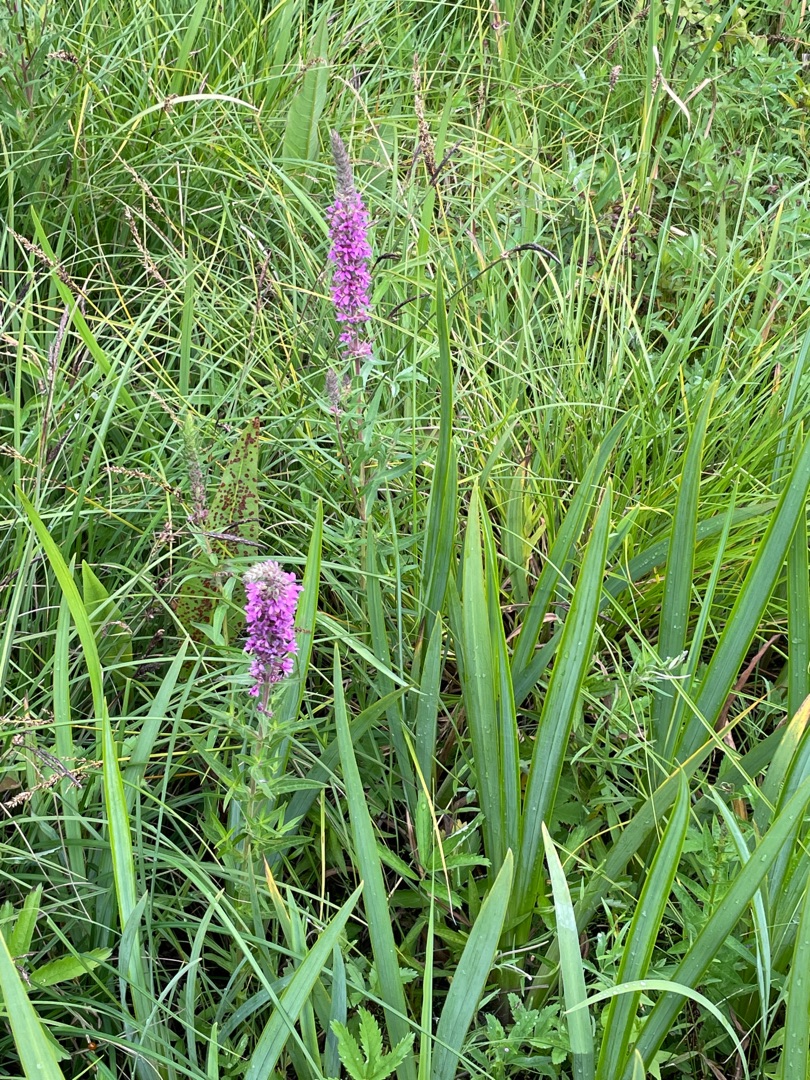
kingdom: Plantae
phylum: Tracheophyta
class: Magnoliopsida
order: Myrtales
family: Lythraceae
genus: Lythrum
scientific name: Lythrum salicaria
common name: Kattehale
